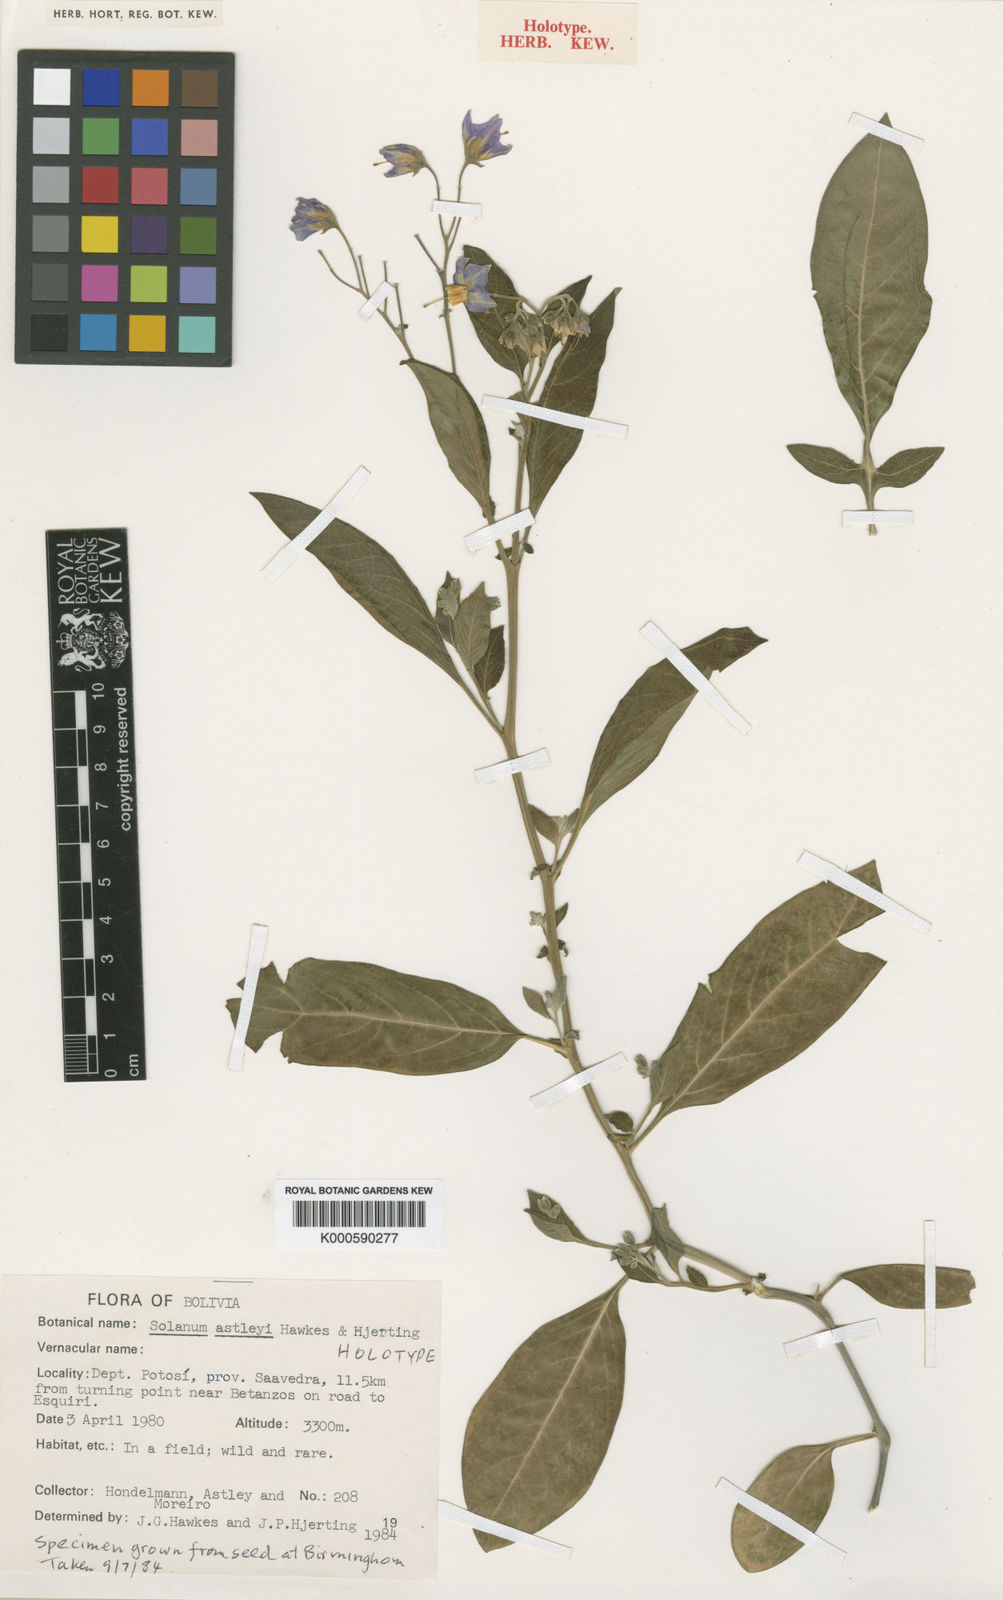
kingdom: Plantae
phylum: Tracheophyta
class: Magnoliopsida
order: Solanales
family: Solanaceae
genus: Solanum
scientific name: Solanum boliviense
